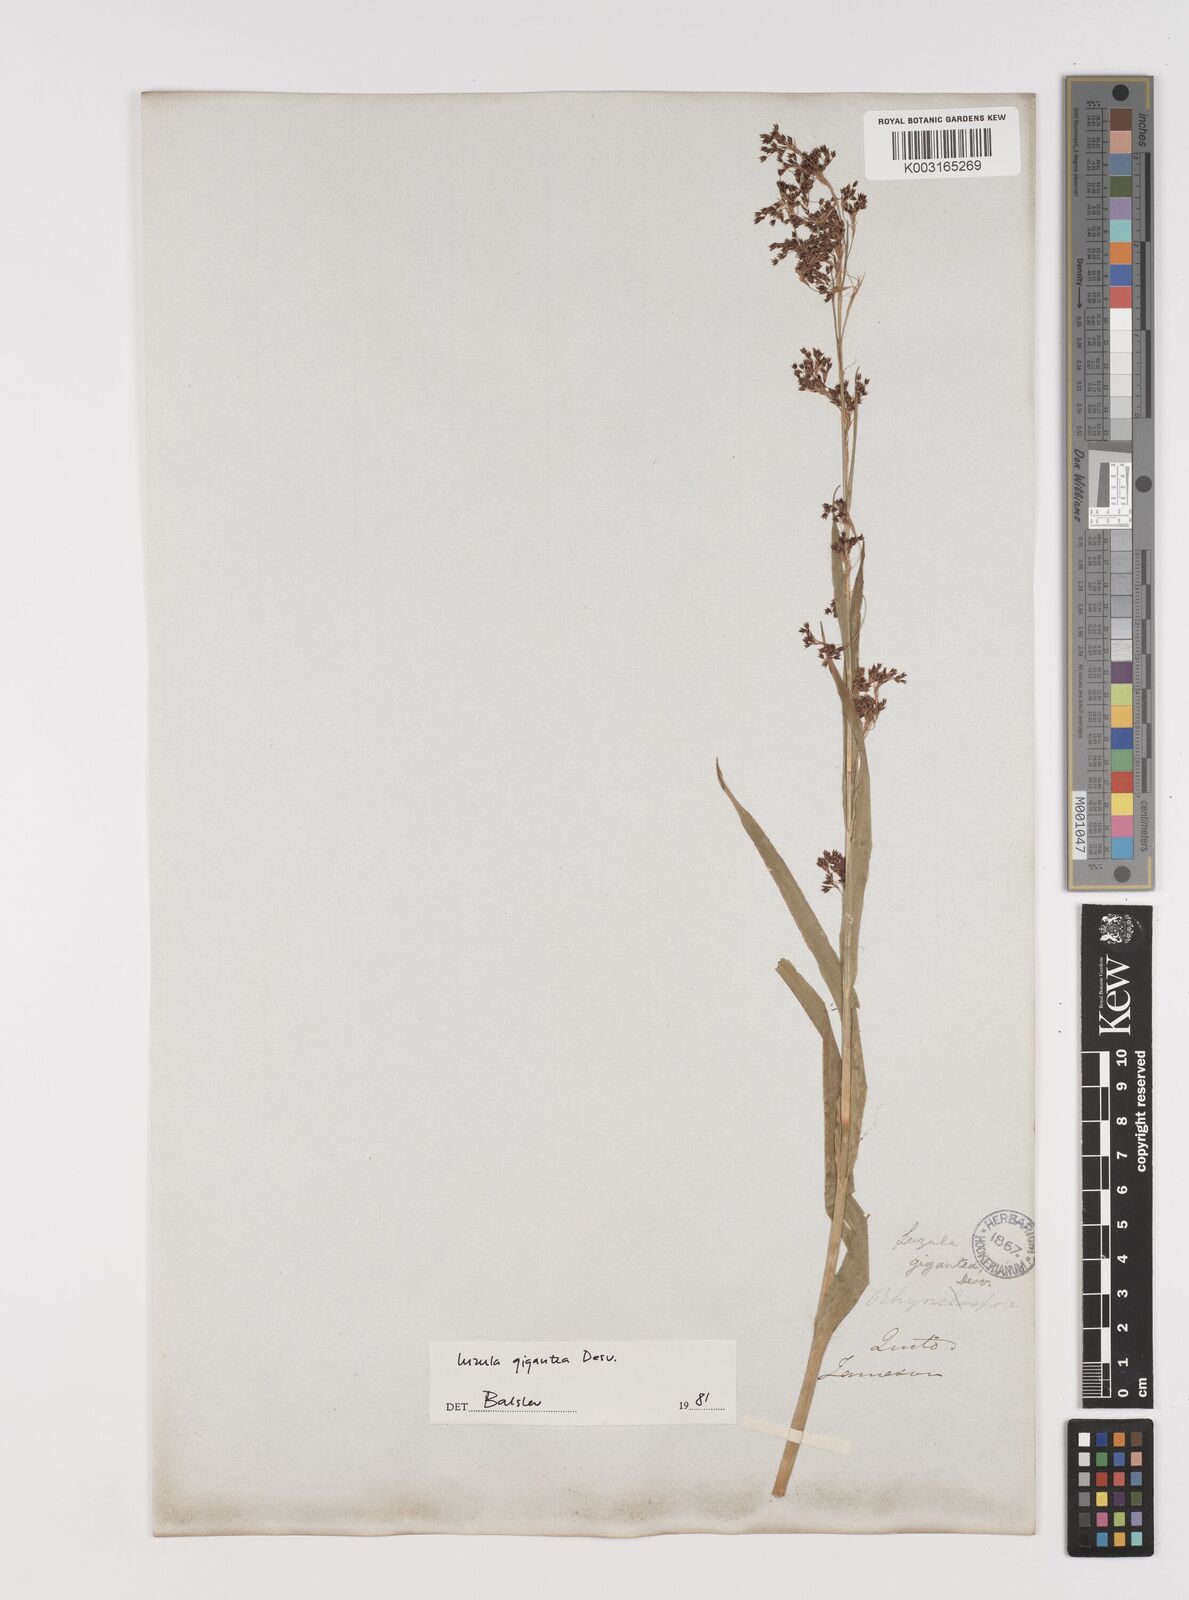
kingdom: Plantae
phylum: Tracheophyta
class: Liliopsida
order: Poales
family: Juncaceae
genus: Luzula
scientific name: Luzula gigantea
